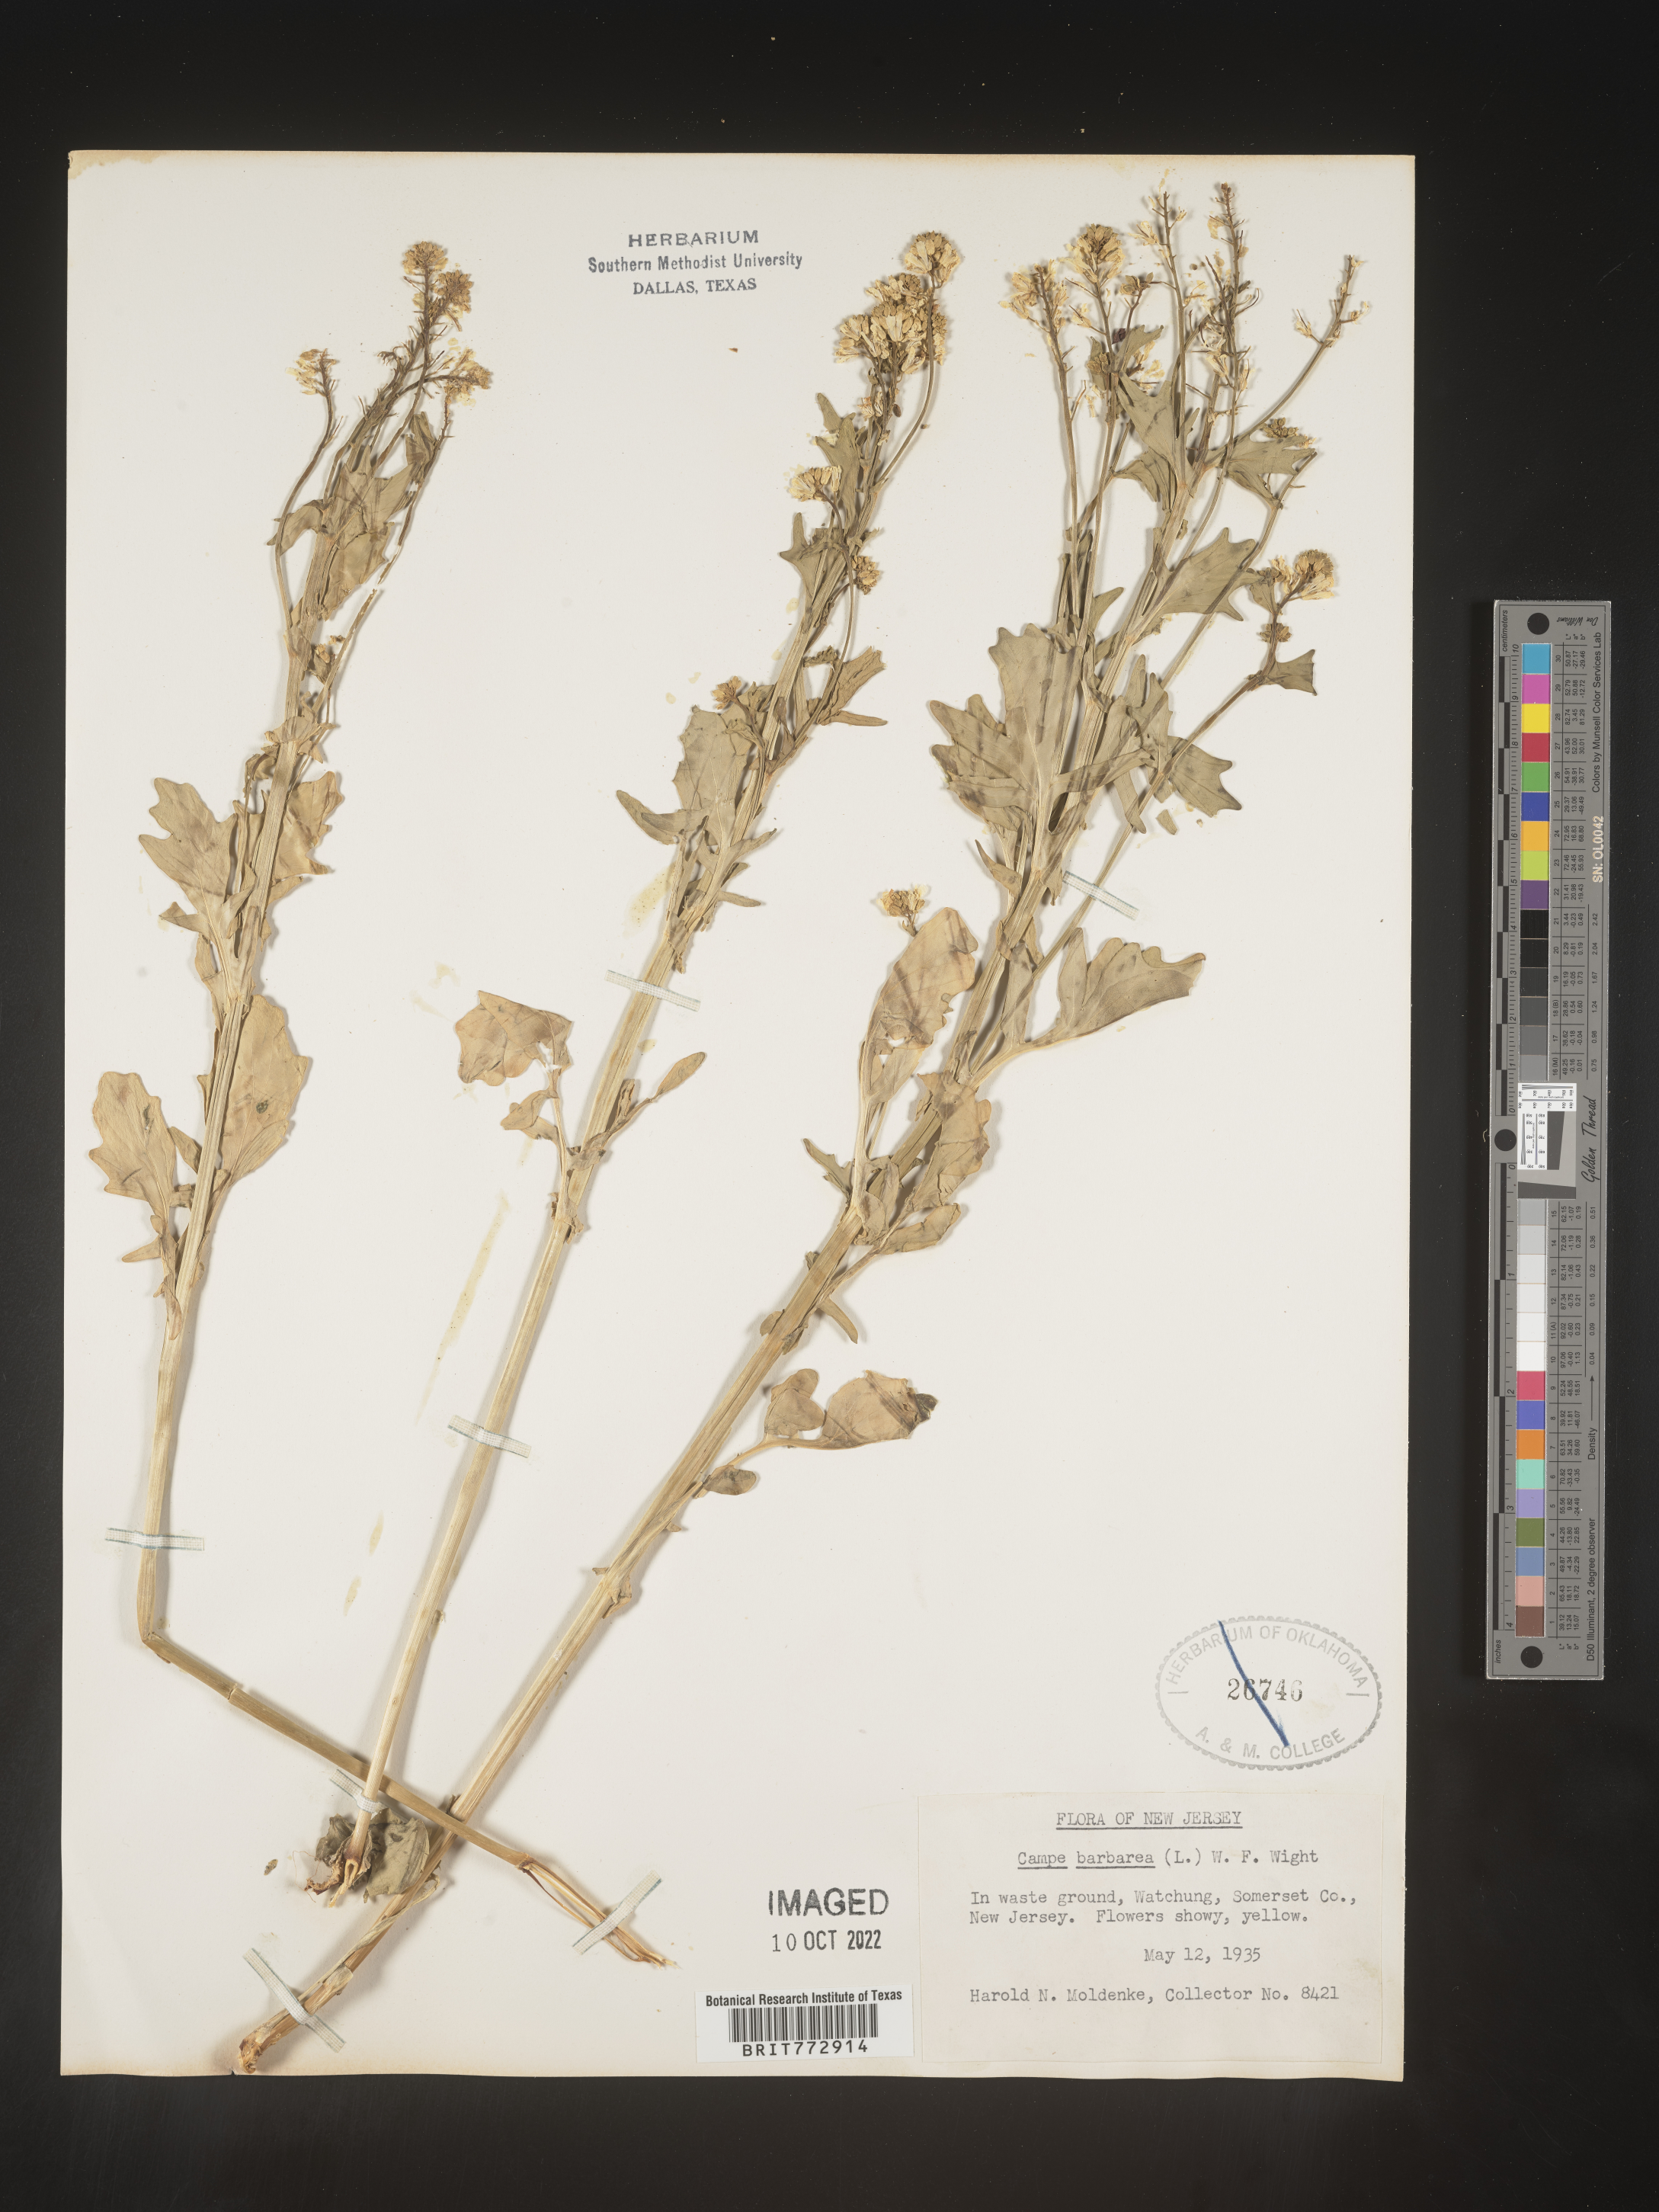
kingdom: Plantae
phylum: Tracheophyta
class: Magnoliopsida
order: Brassicales
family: Brassicaceae
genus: Barbarea
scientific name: Barbarea vulgaris
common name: Cressy-greens
